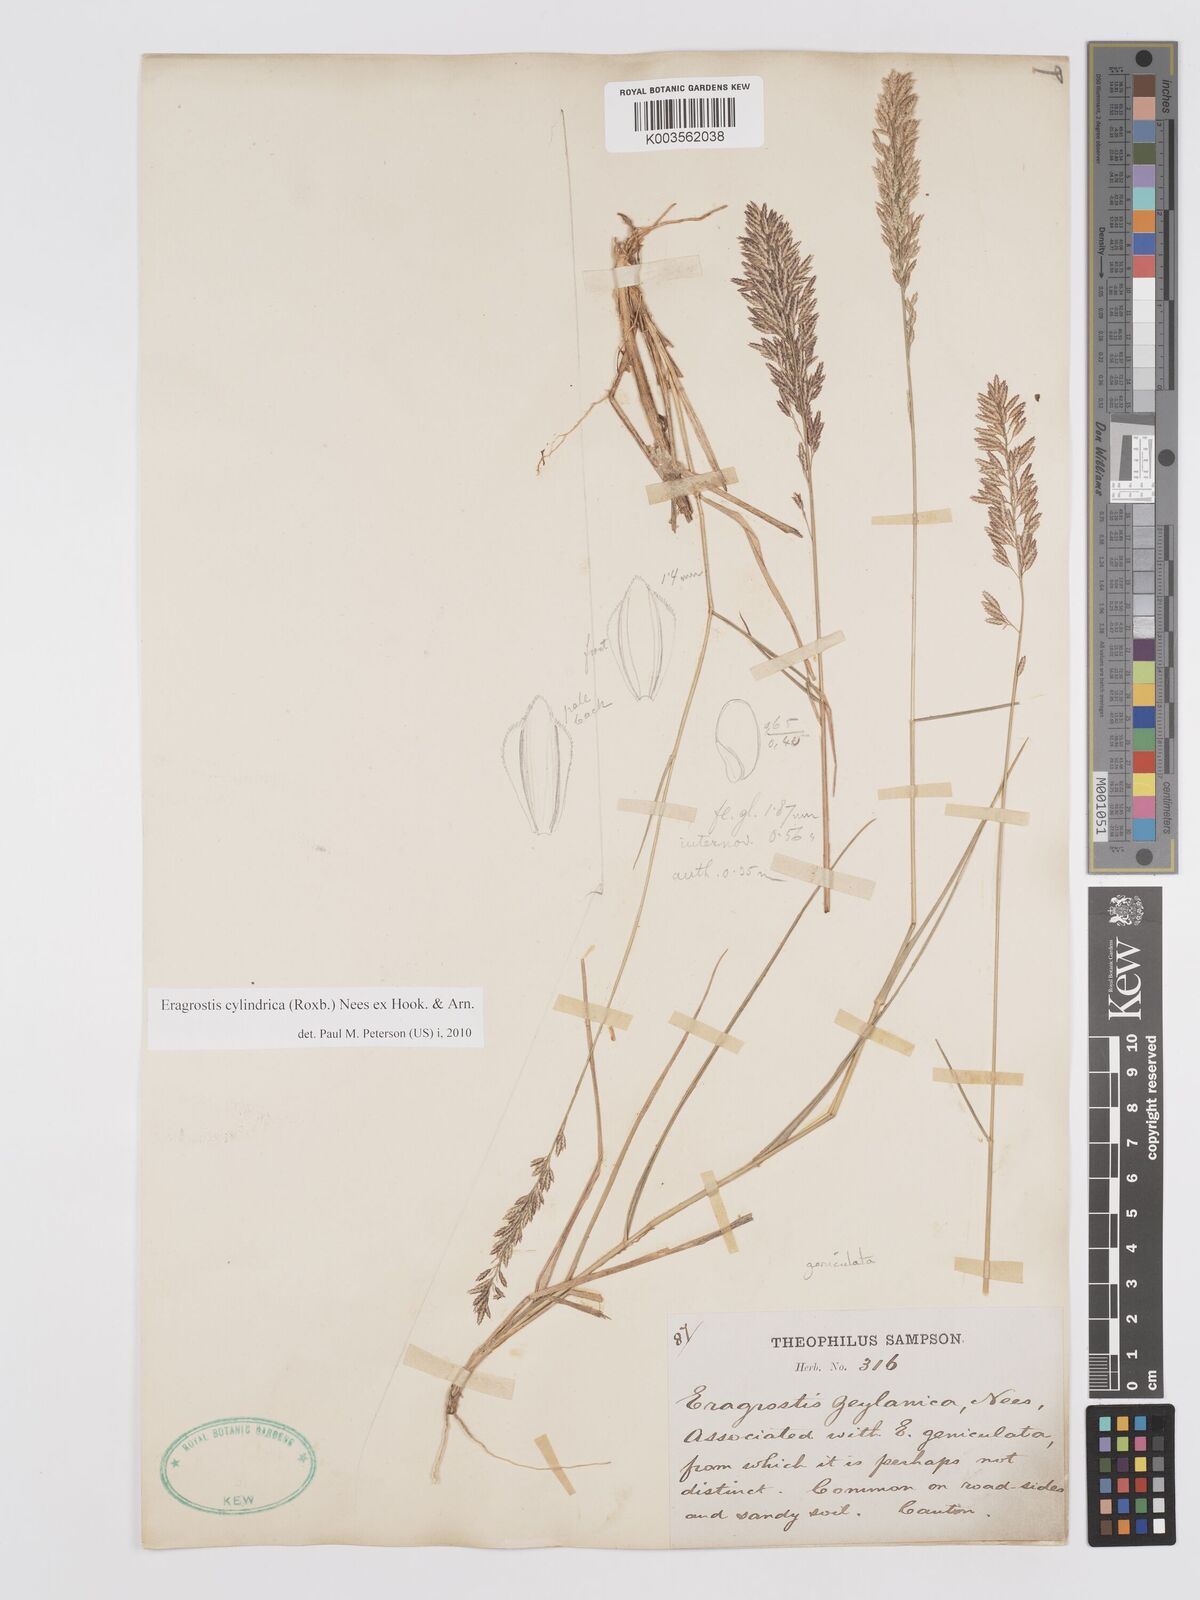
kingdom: Plantae
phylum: Tracheophyta
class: Liliopsida
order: Poales
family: Poaceae
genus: Eragrostis
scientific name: Eragrostis cylindrica
